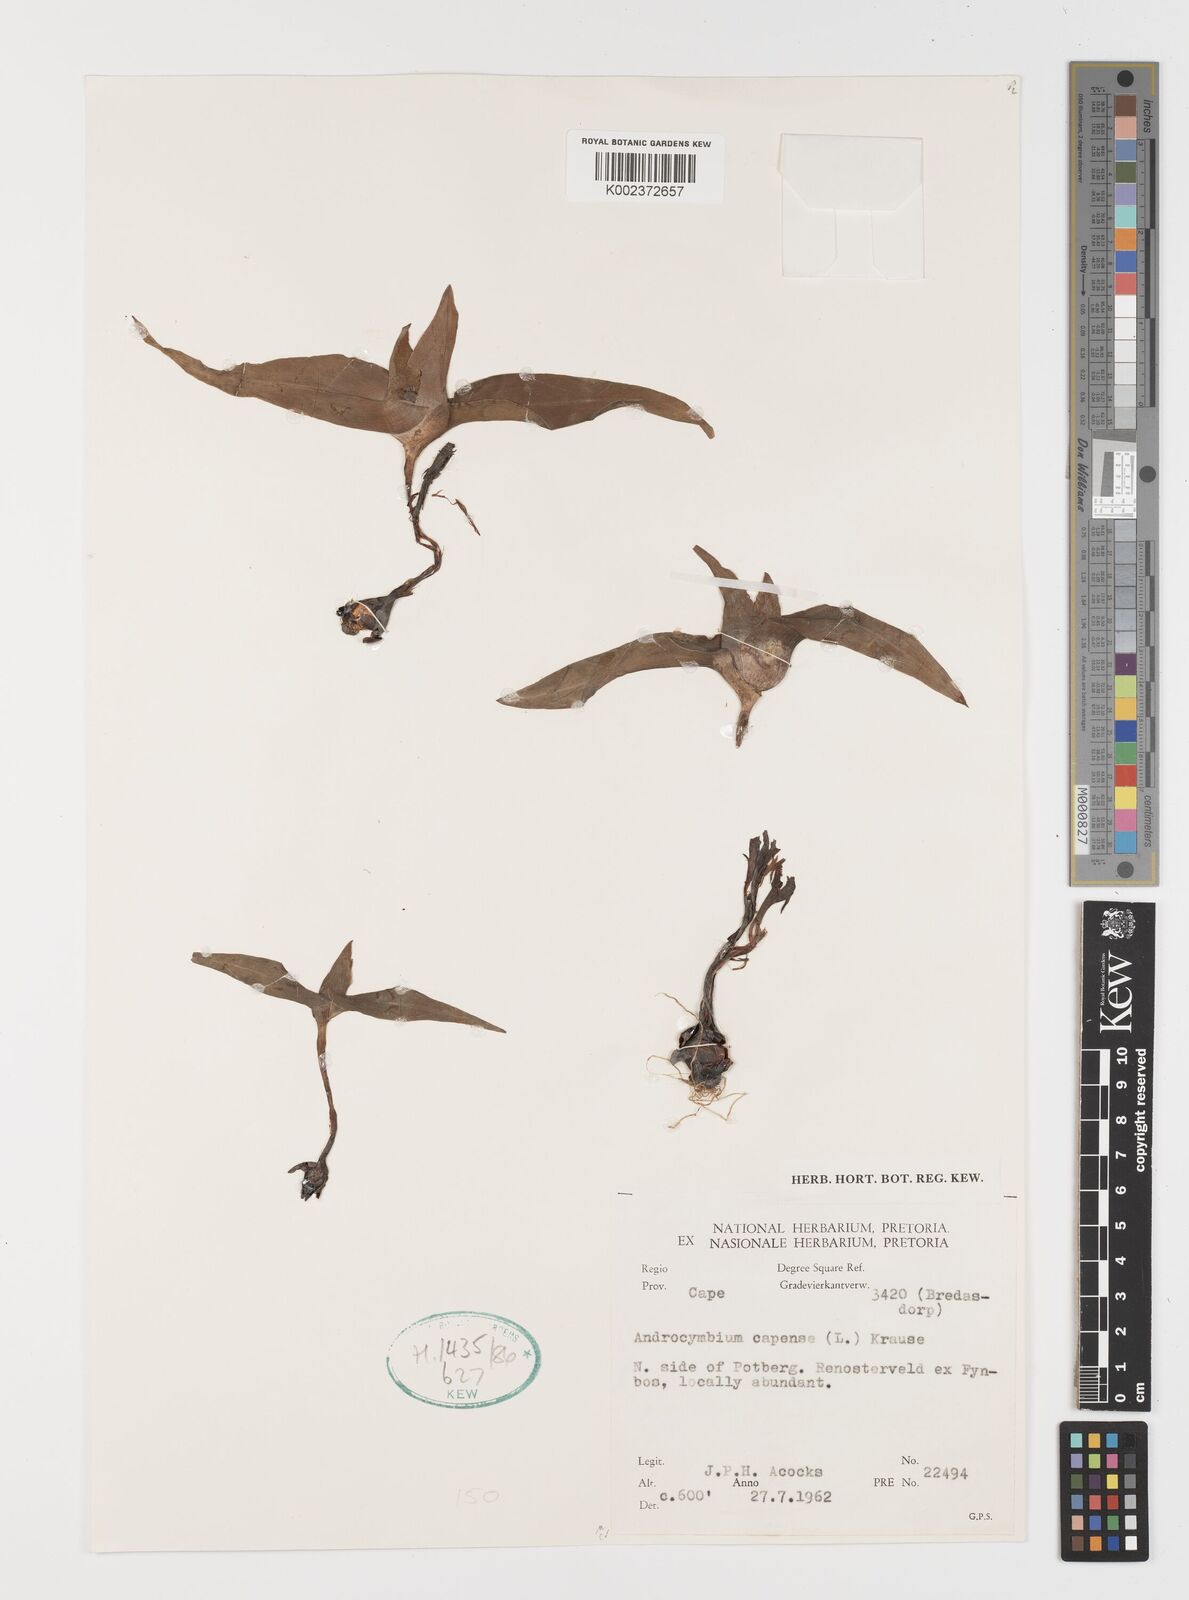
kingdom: Plantae
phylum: Tracheophyta
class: Liliopsida
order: Liliales
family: Colchicaceae
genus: Colchicum
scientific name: Colchicum capense
